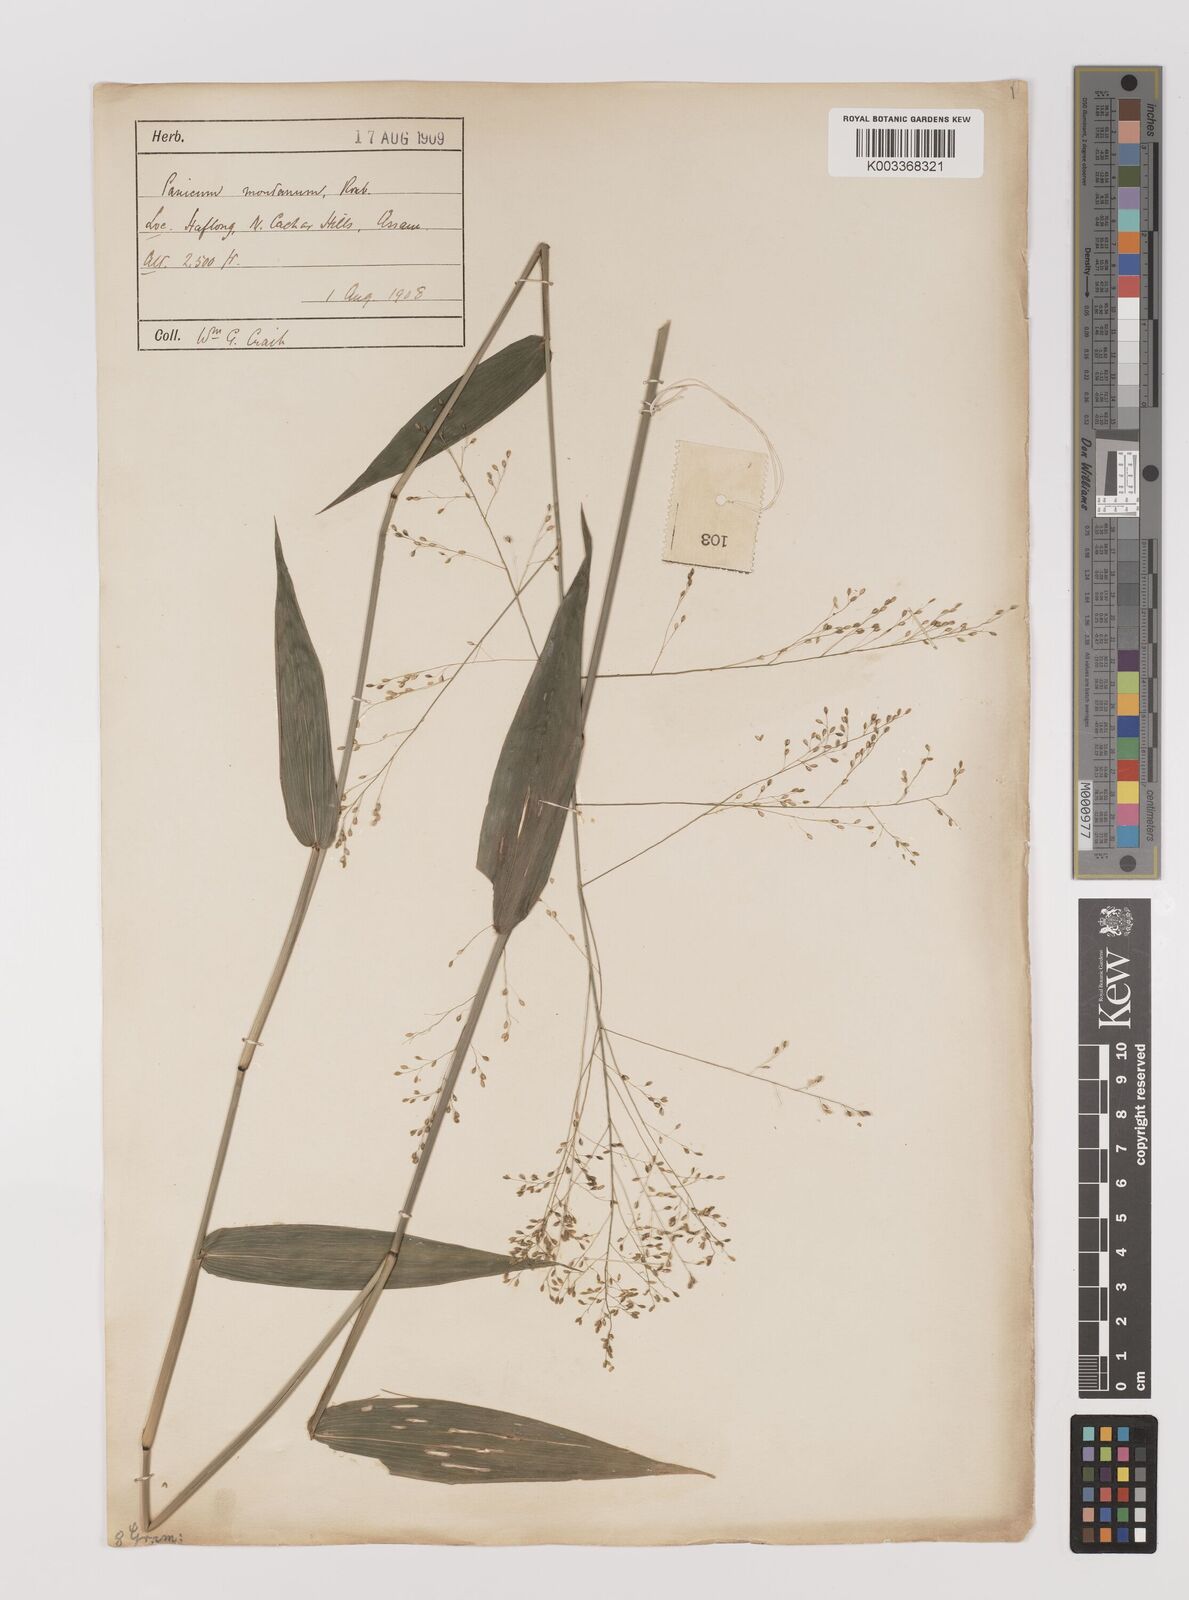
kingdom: Plantae
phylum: Tracheophyta
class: Liliopsida
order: Poales
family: Poaceae
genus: Panicum
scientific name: Panicum notatum
